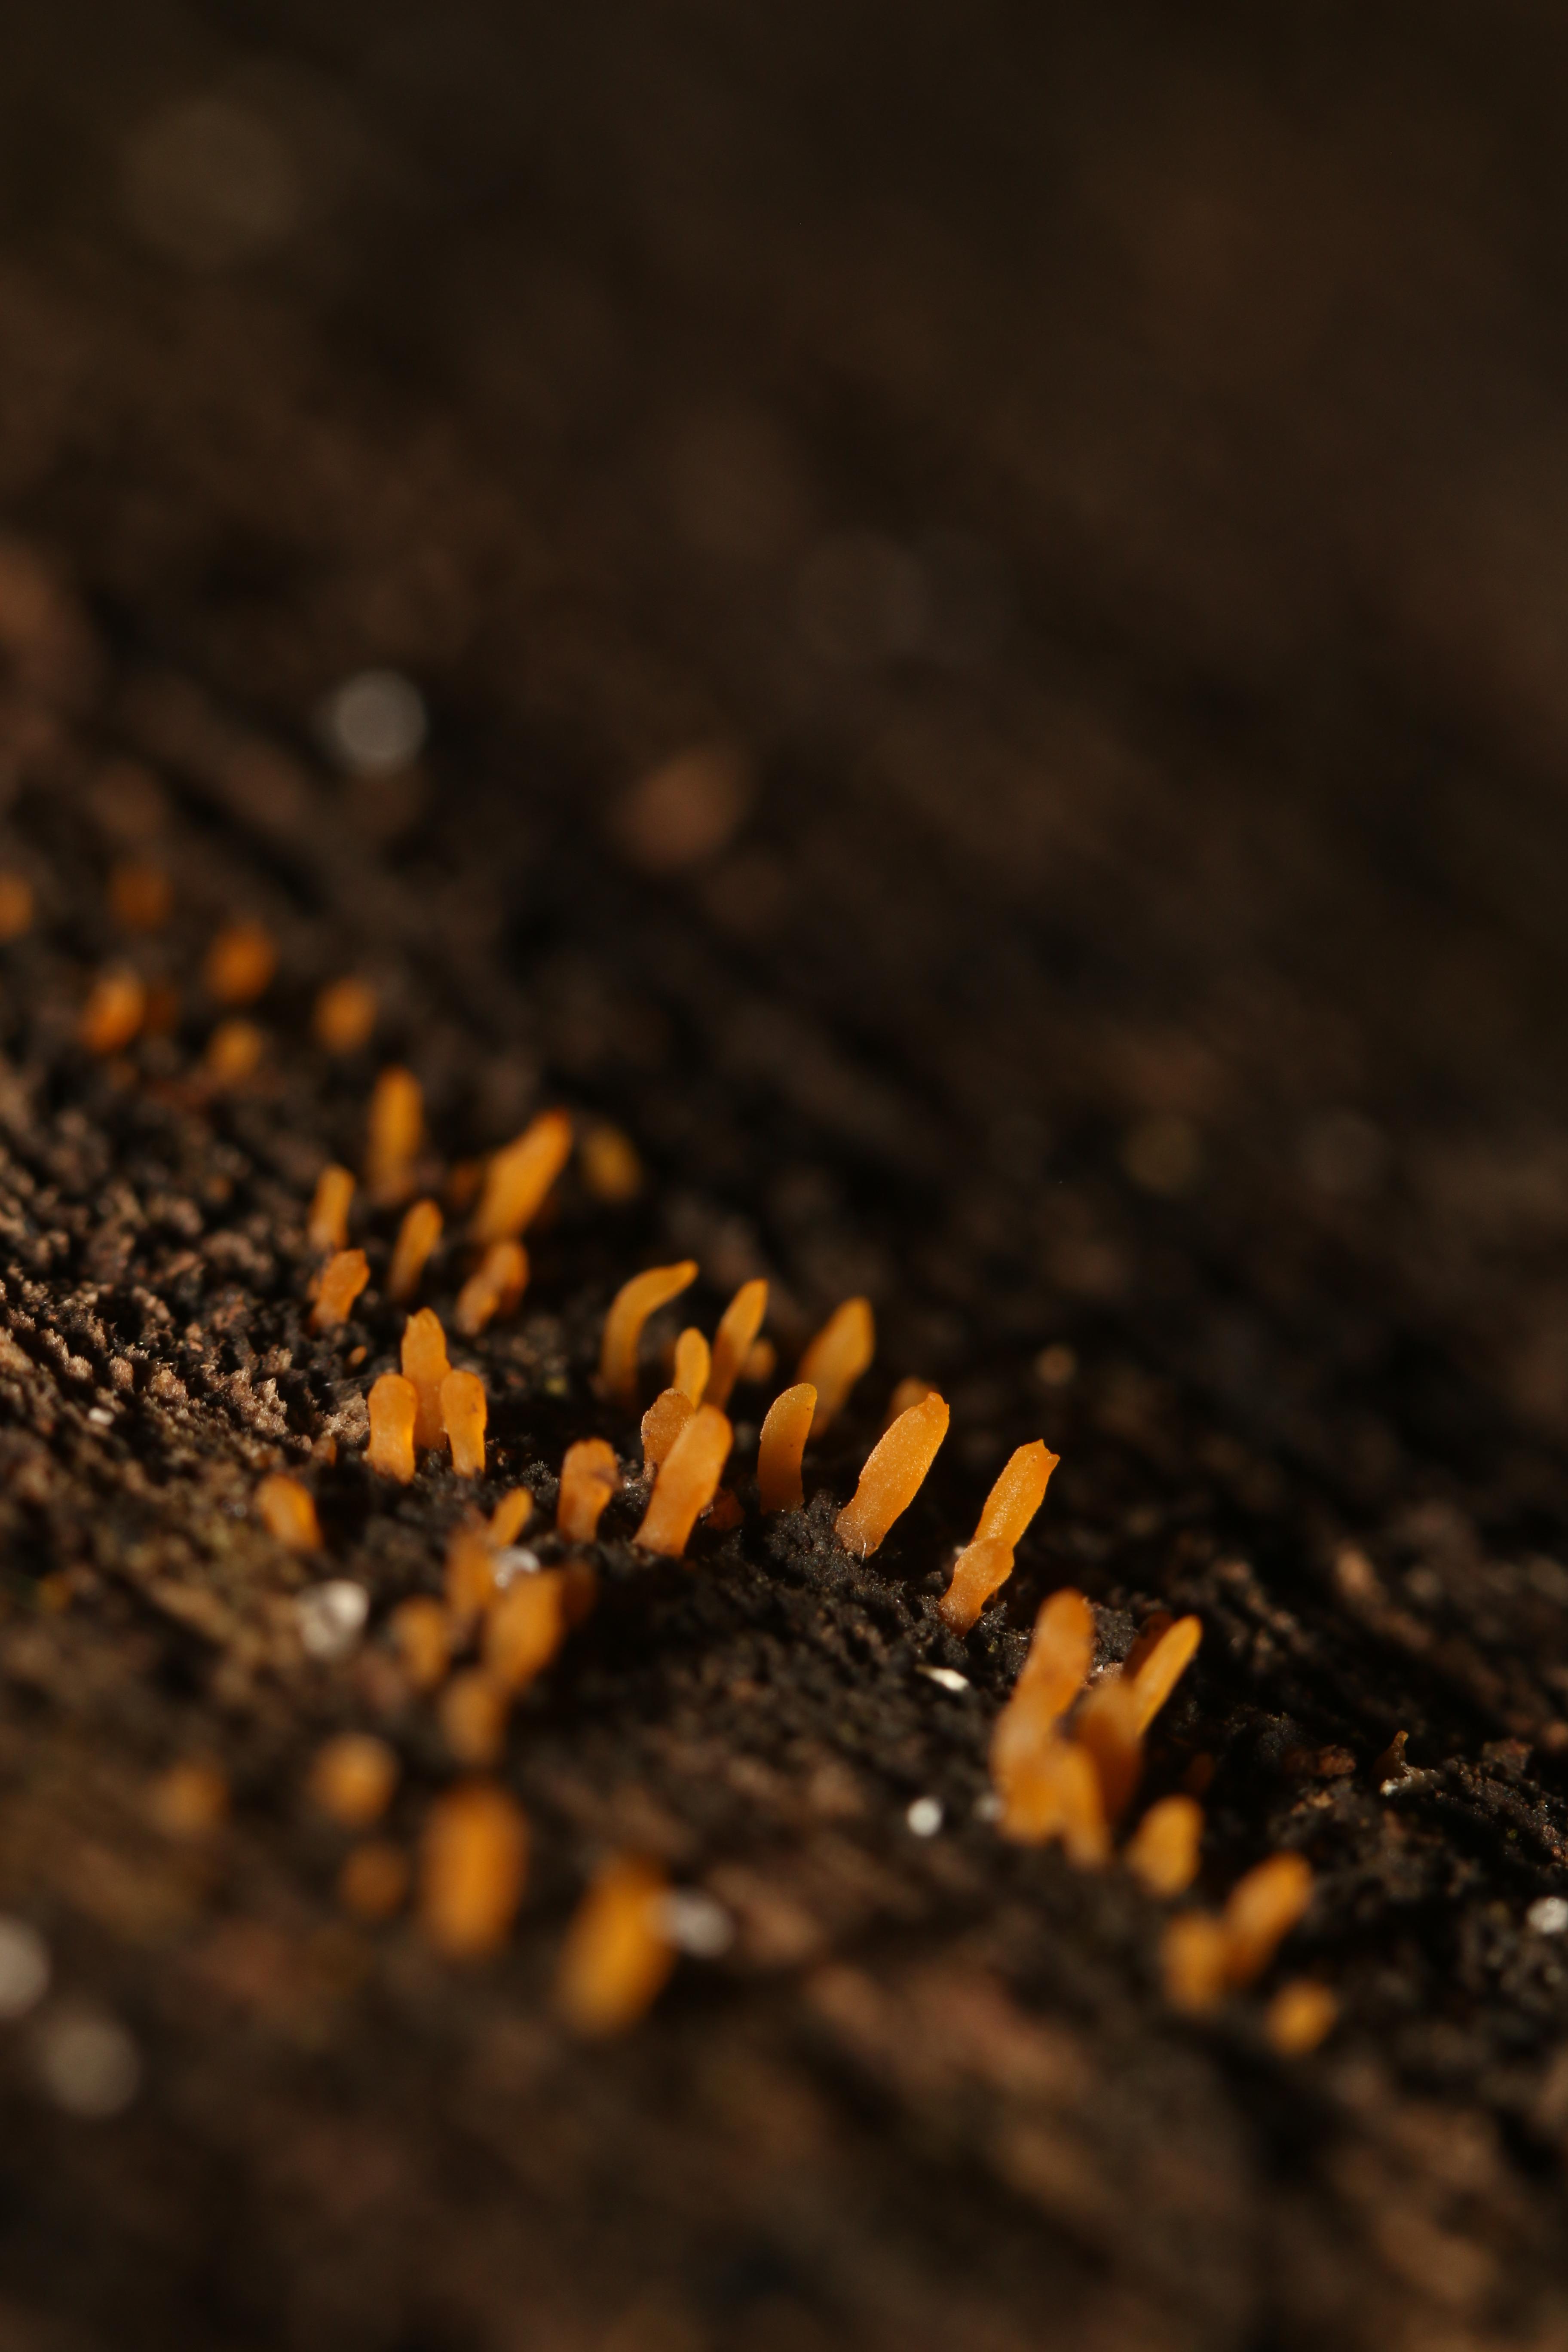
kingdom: Fungi
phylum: Basidiomycota
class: Dacrymycetes
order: Dacrymycetales
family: Dacrymycetaceae
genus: Calocera
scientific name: Calocera cornea
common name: liden guldgaffel
